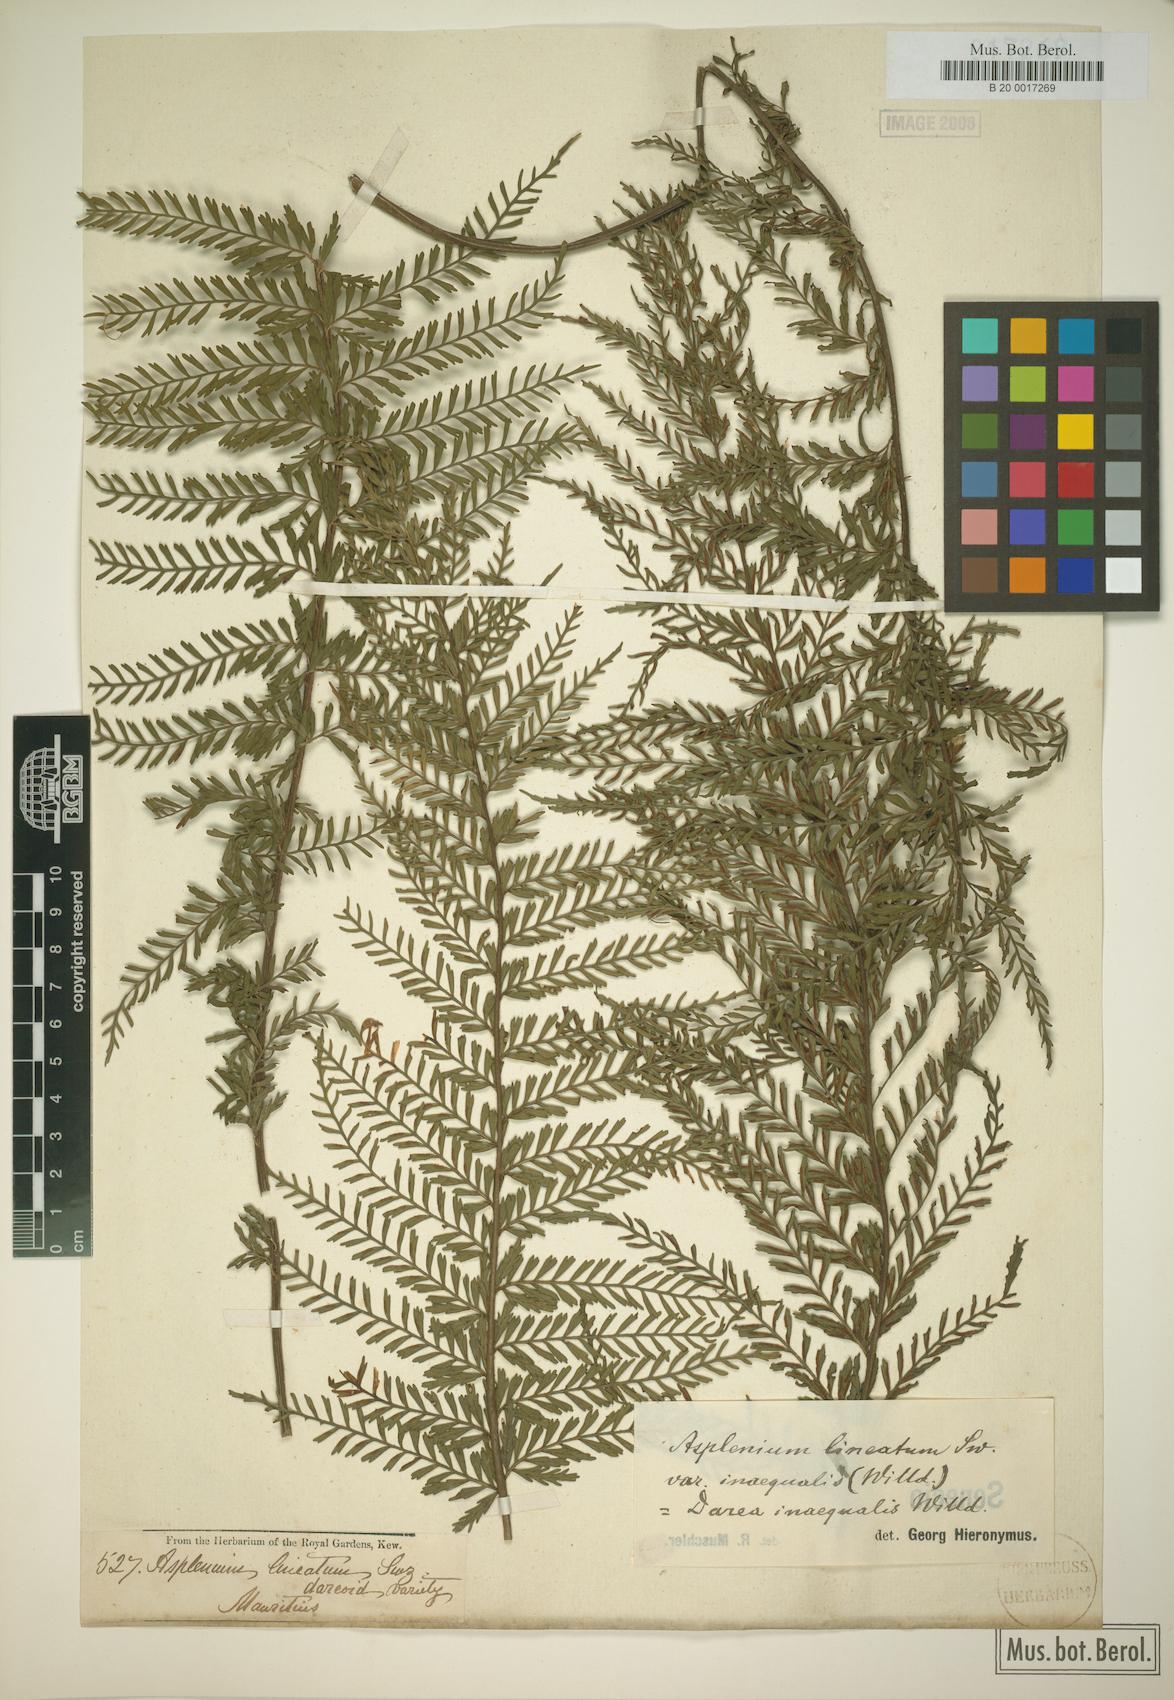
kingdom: Plantae
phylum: Tracheophyta
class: Polypodiopsida
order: Polypodiales
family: Aspleniaceae
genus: Asplenium
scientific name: Asplenium daucifolium
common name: Mauritius spleenwort
